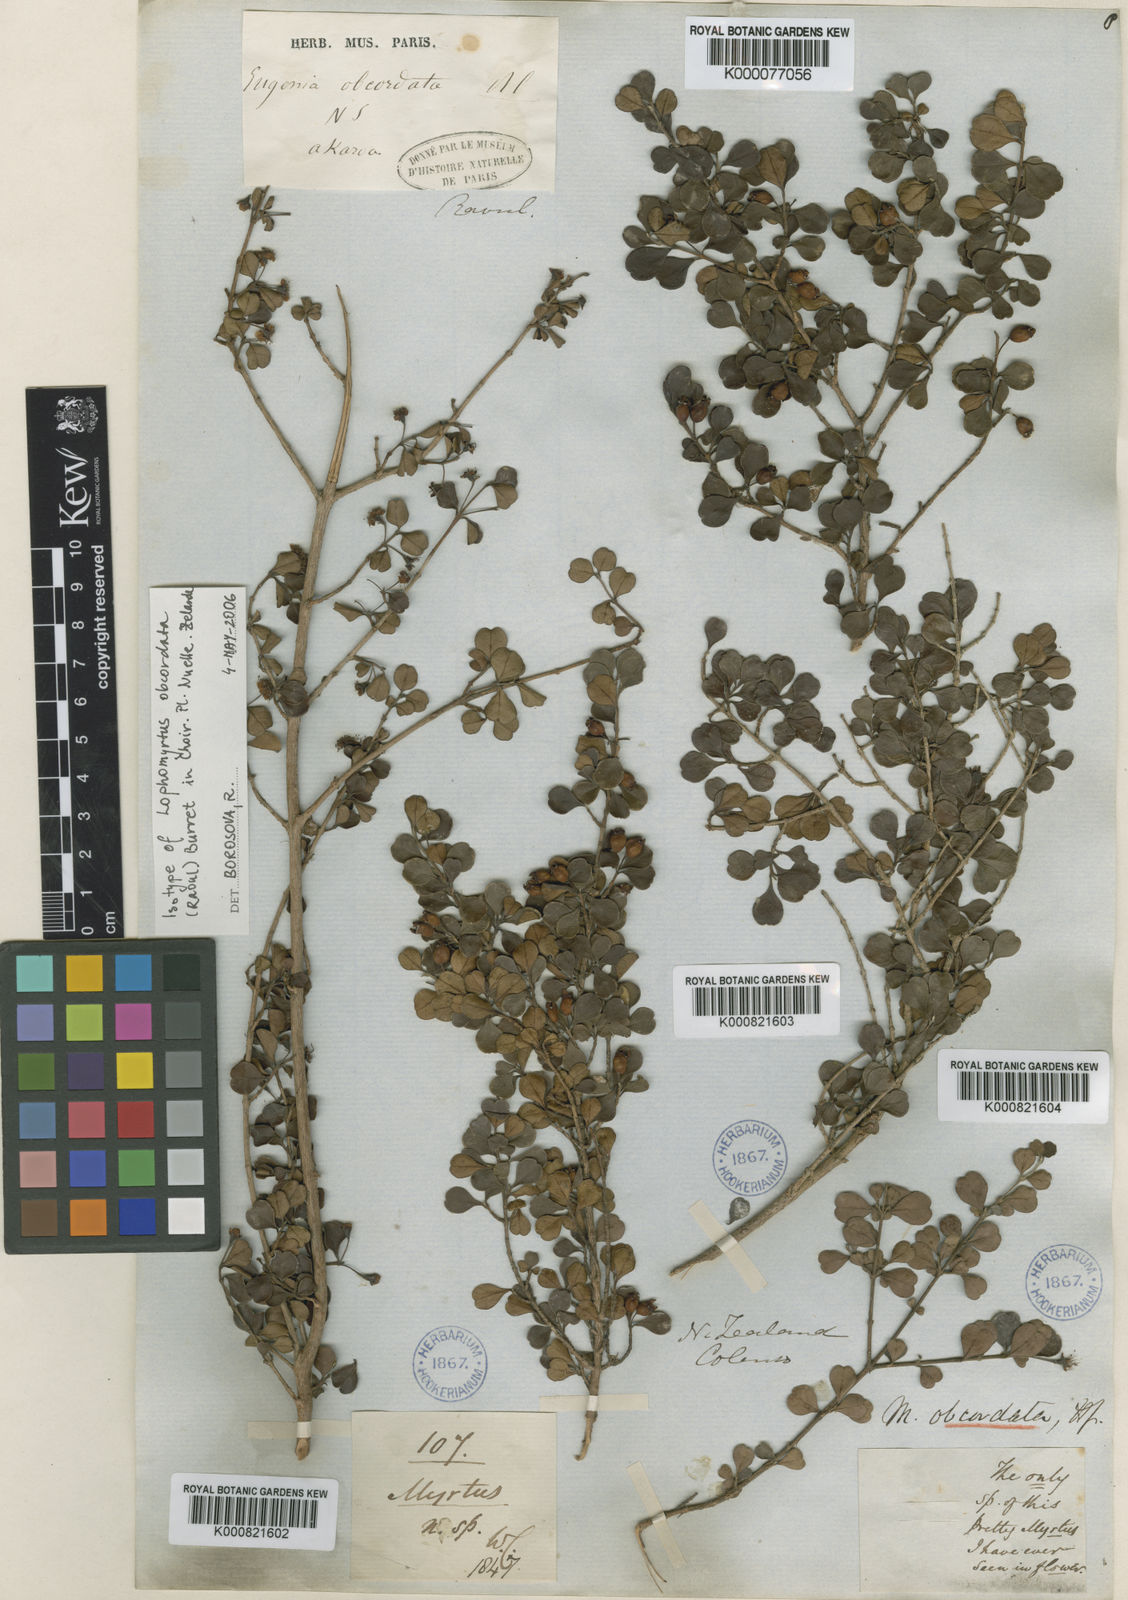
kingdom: Plantae
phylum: Tracheophyta
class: Magnoliopsida
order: Myrtales
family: Myrtaceae
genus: Lophomyrtus
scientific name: Lophomyrtus obcordata
